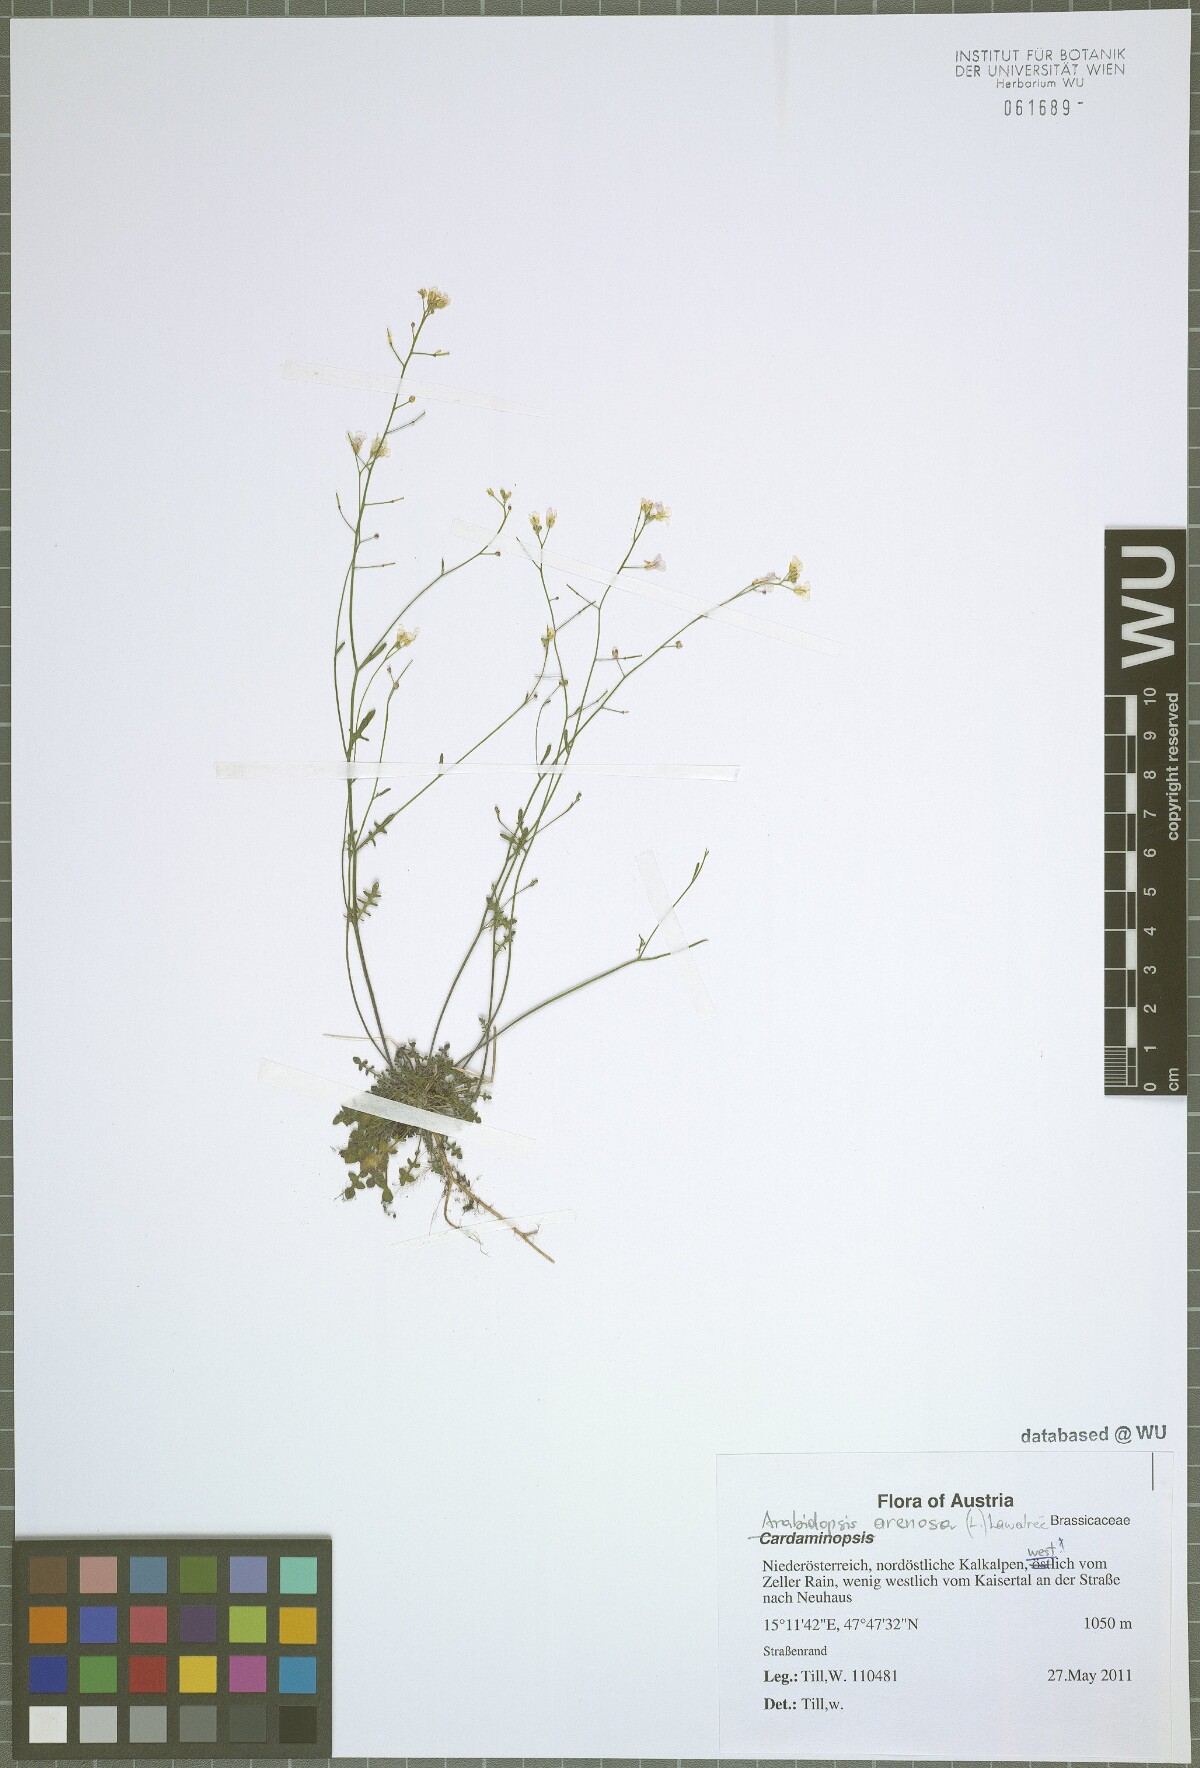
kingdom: Plantae
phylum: Tracheophyta
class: Magnoliopsida
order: Brassicales
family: Brassicaceae
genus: Arabidopsis
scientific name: Arabidopsis arenosa
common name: Sand rock-cress
